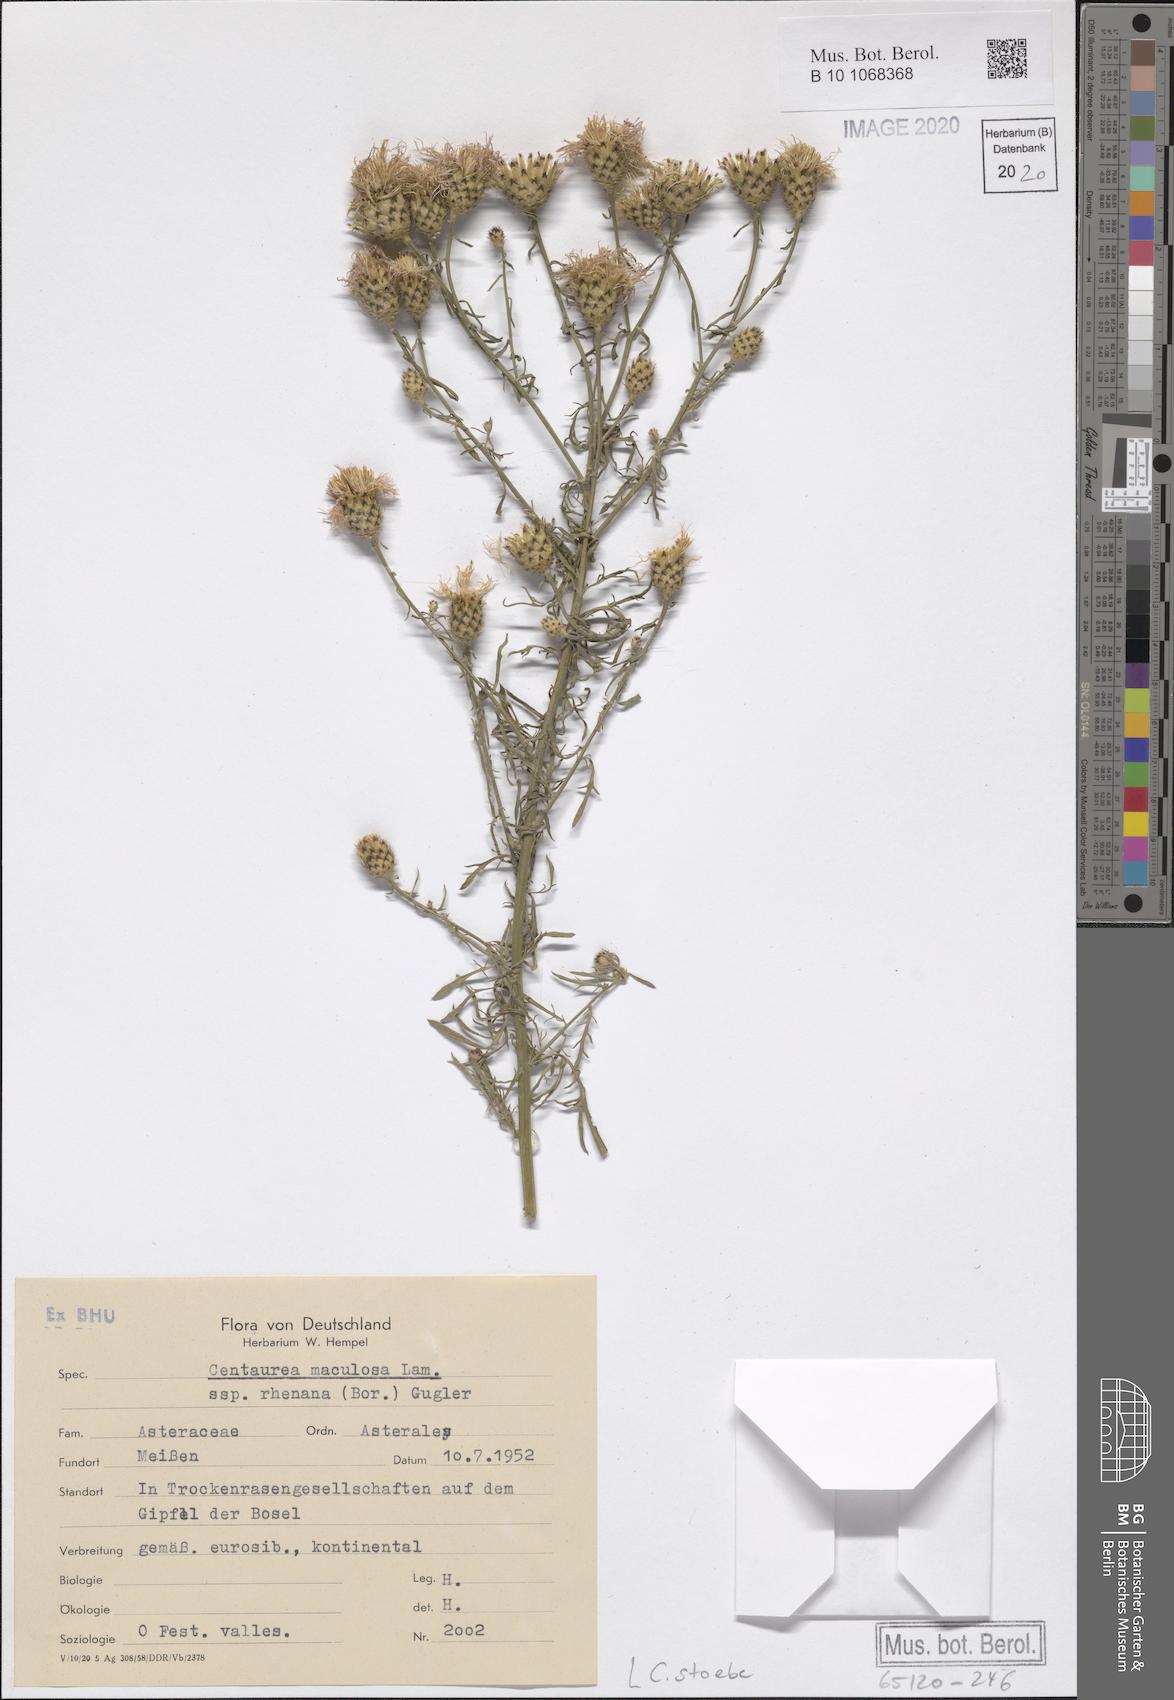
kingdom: Plantae
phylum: Tracheophyta
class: Magnoliopsida
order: Asterales
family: Asteraceae
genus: Centaurea
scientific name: Centaurea stoebe
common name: Spotted knapweed
